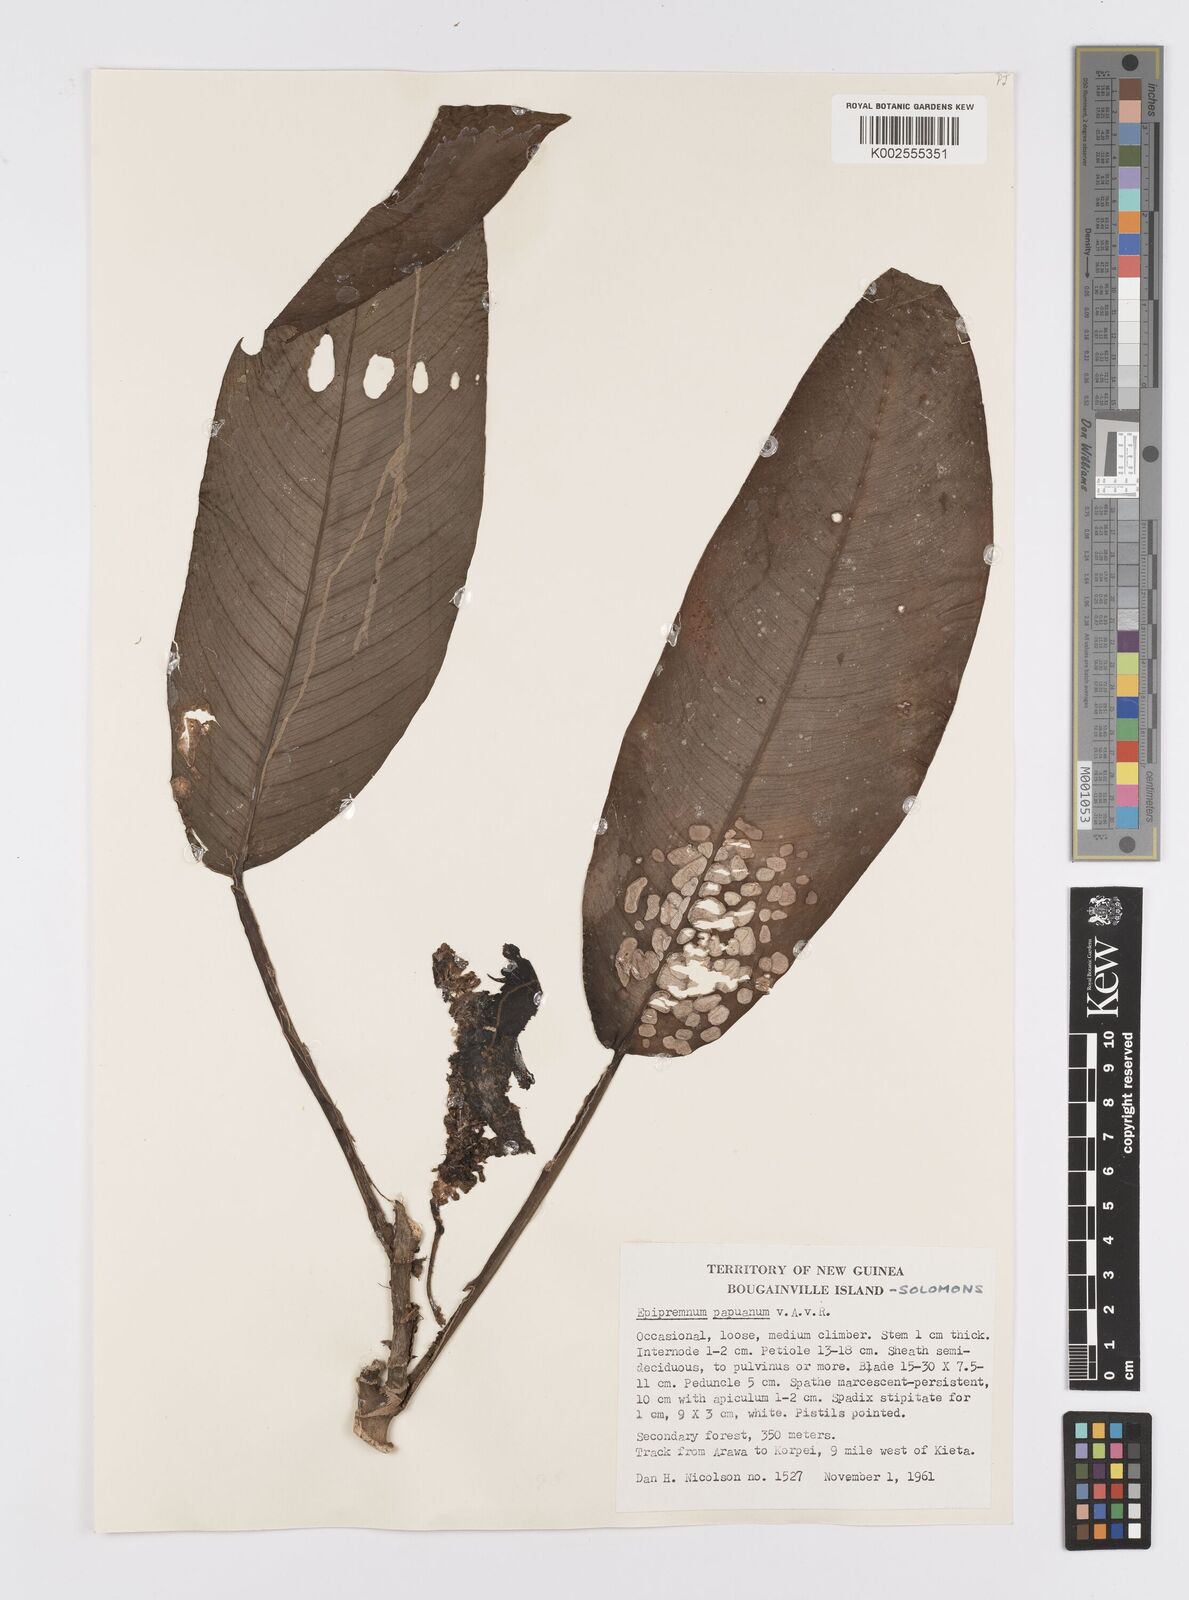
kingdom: Plantae
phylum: Tracheophyta
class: Liliopsida
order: Alismatales
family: Araceae
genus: Epipremnum
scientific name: Epipremnum papuanum
